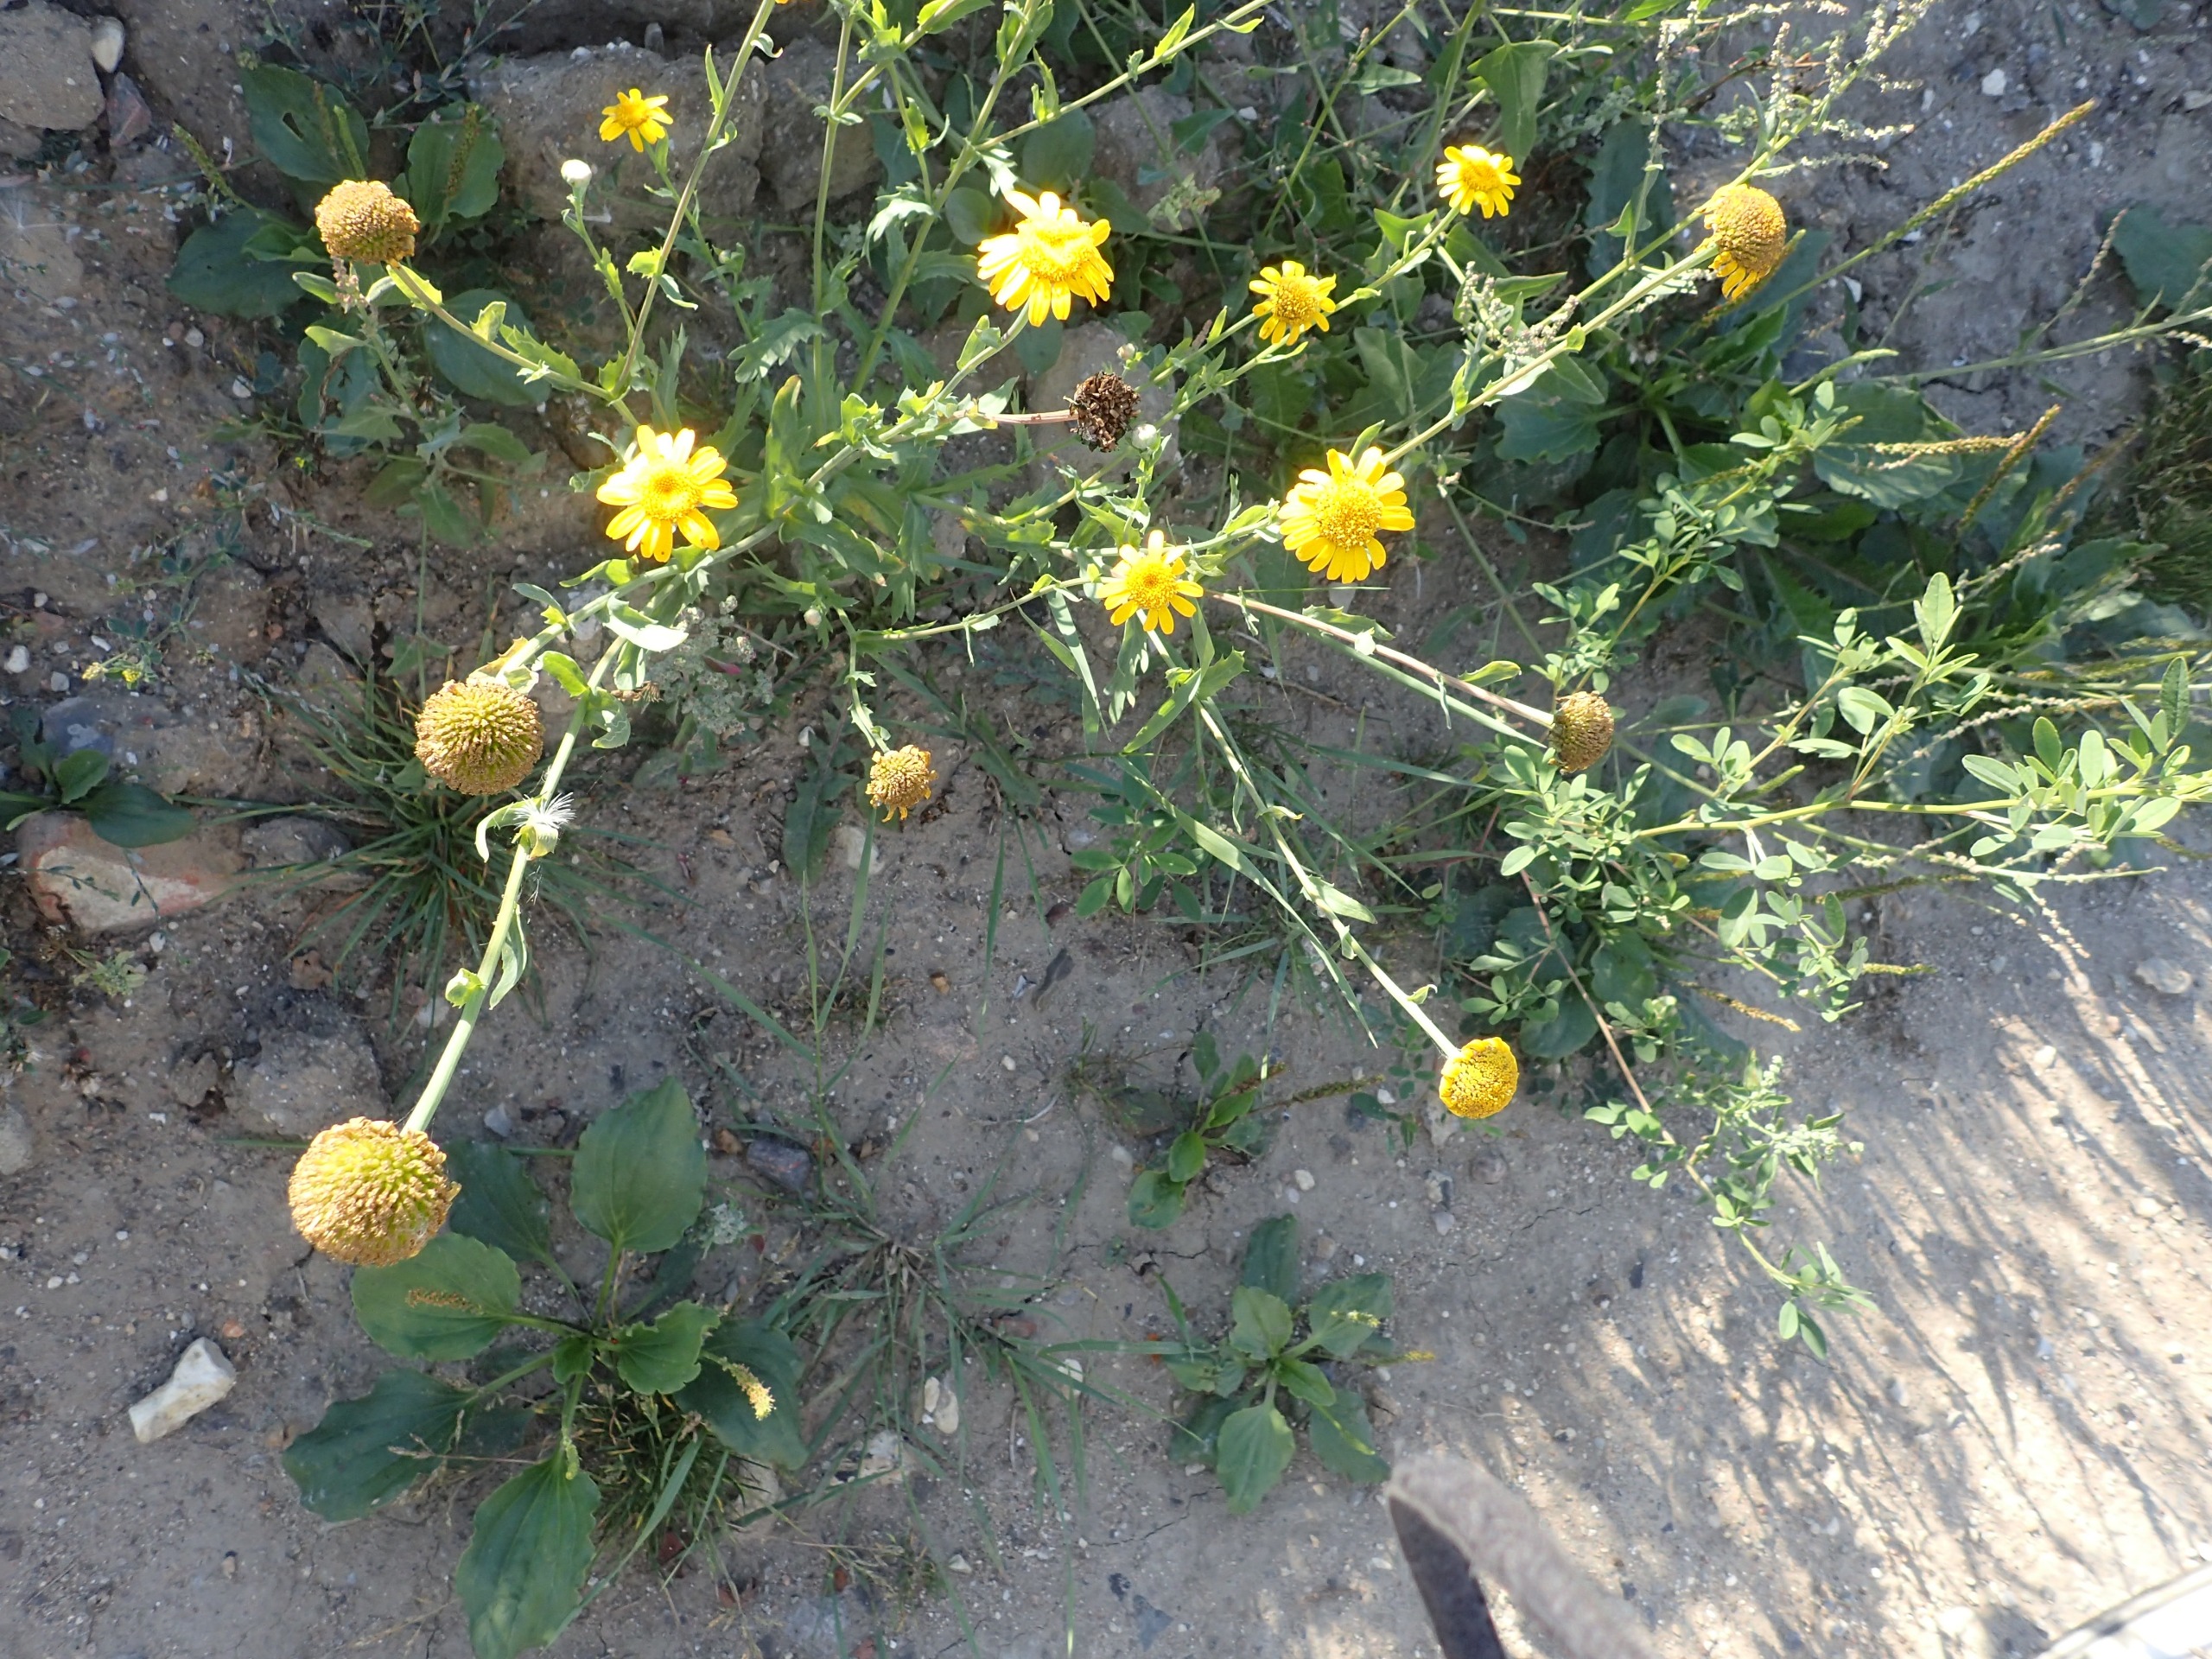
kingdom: Plantae
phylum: Tracheophyta
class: Magnoliopsida
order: Asterales
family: Asteraceae
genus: Glebionis
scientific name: Glebionis segetum
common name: Gul okseøje
